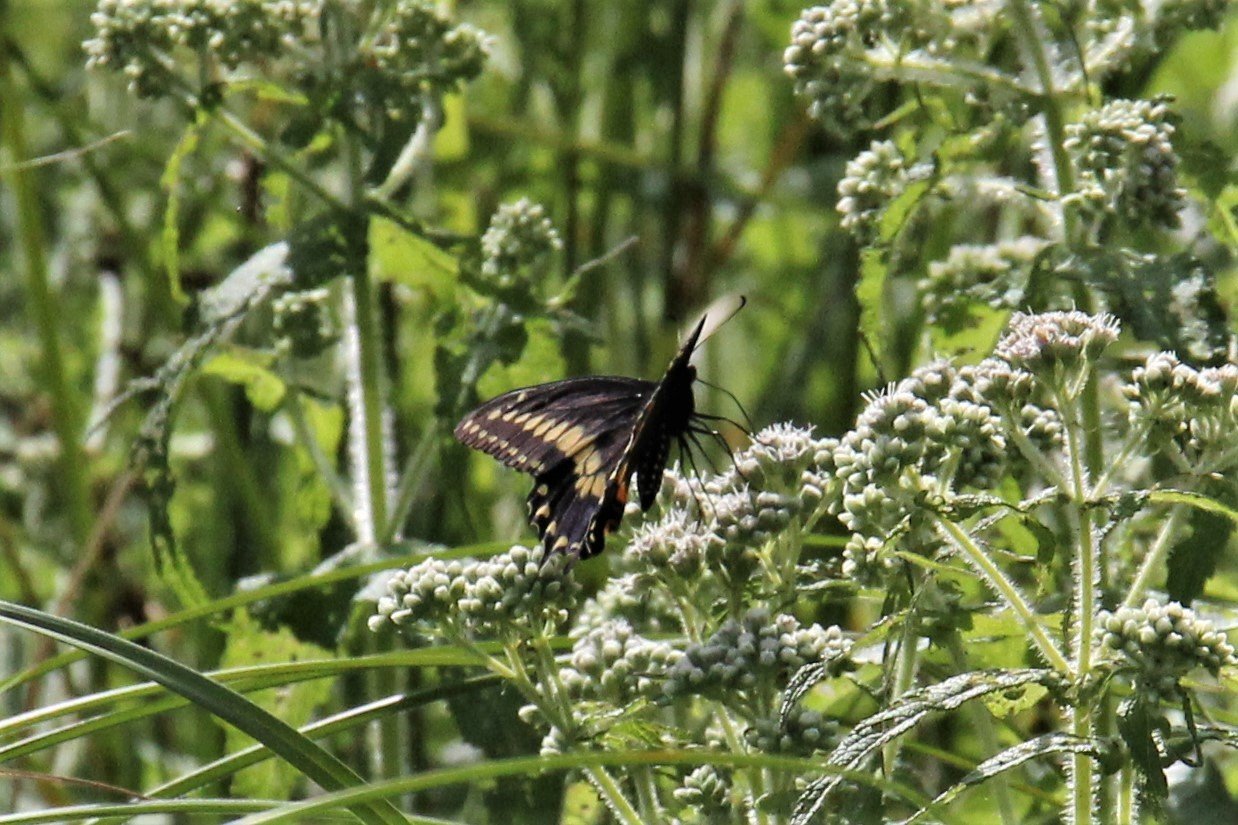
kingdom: Animalia
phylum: Arthropoda
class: Insecta
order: Lepidoptera
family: Papilionidae
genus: Papilio
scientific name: Papilio polyxenes
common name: Black Swallowtail
